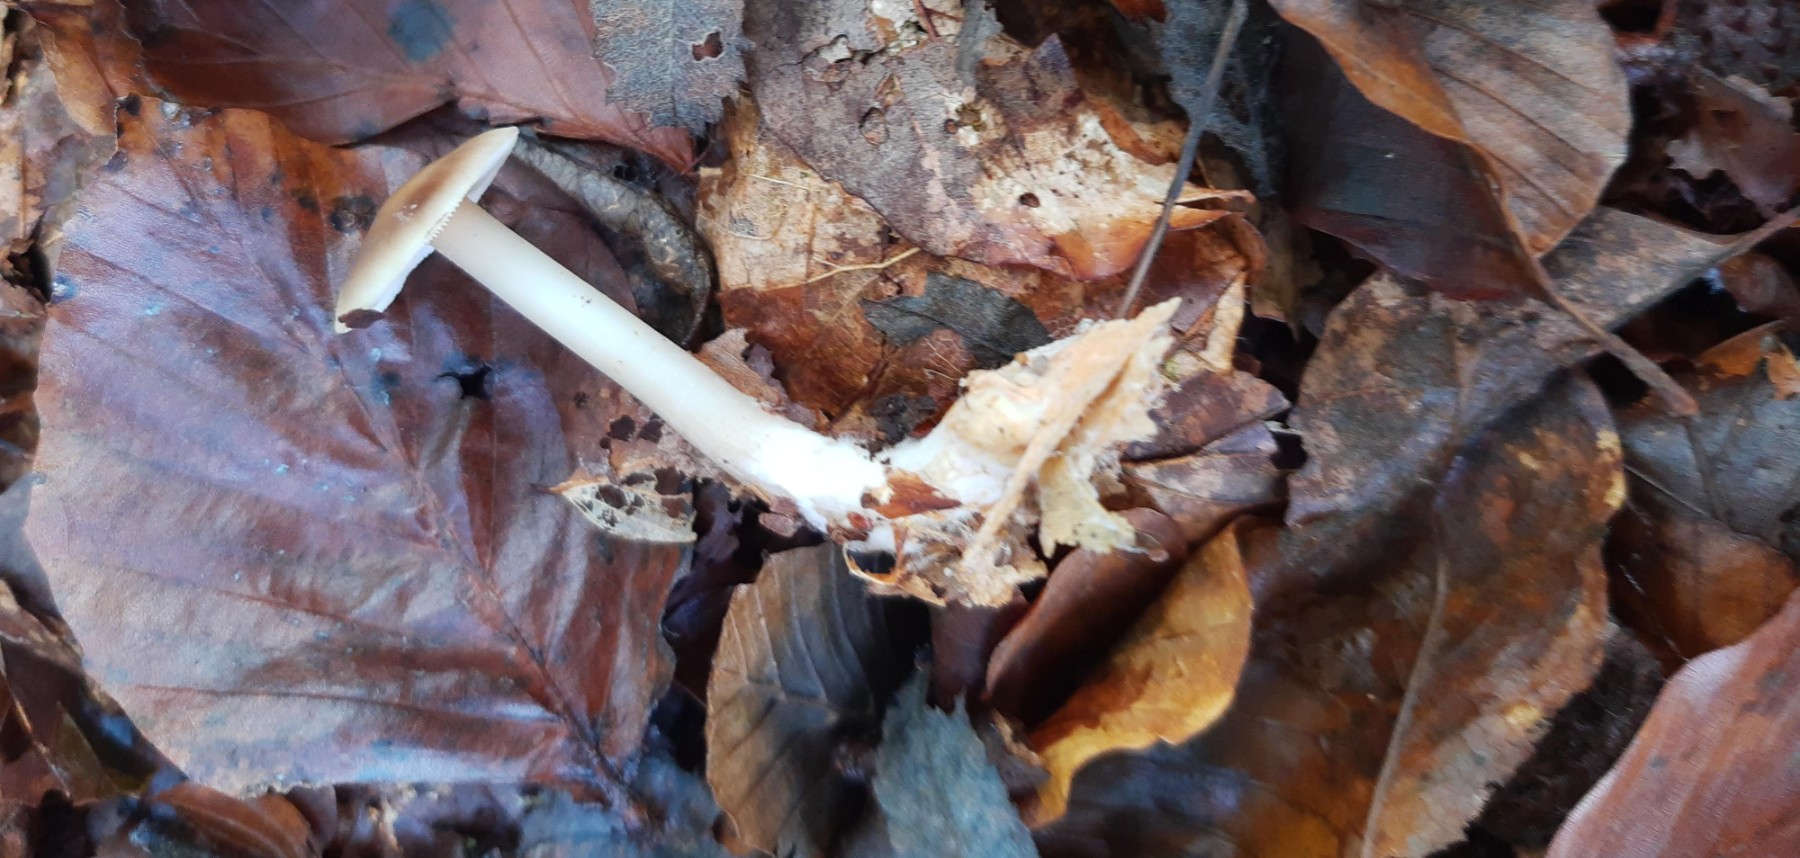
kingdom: Fungi
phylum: Basidiomycota
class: Agaricomycetes
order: Agaricales
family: Omphalotaceae
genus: Rhodocollybia
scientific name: Rhodocollybia asema
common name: horngrå fladhat
